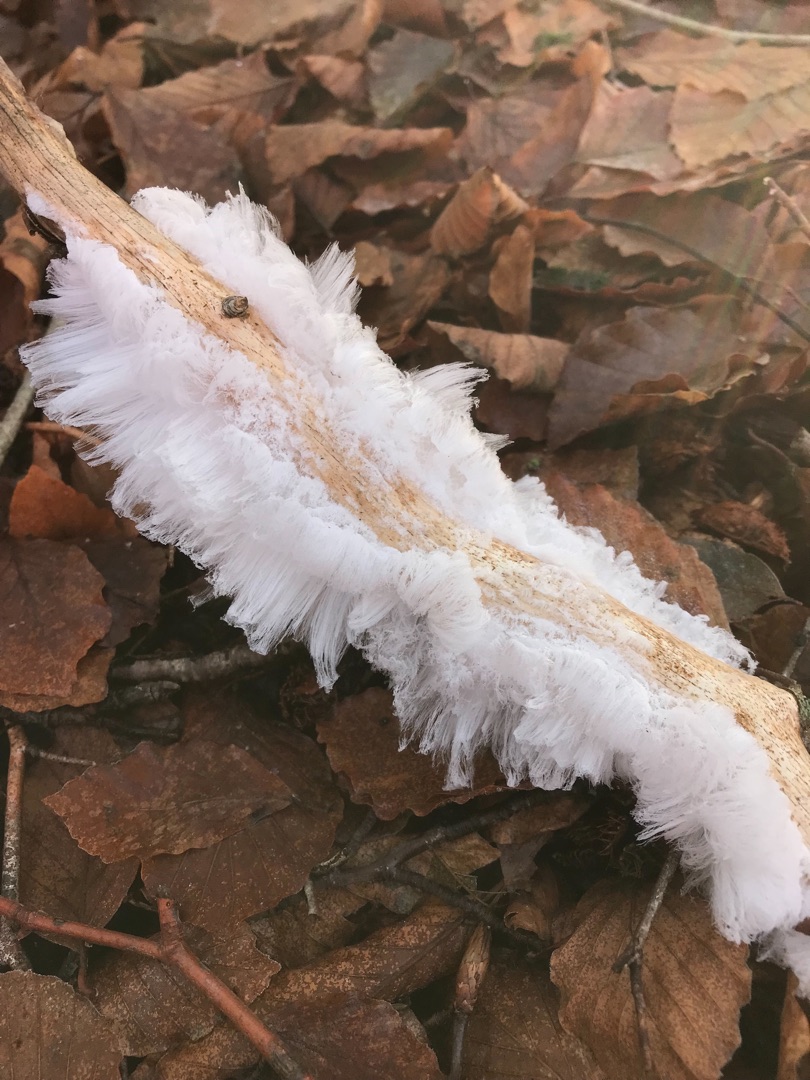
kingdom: Fungi
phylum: Basidiomycota
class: Tremellomycetes
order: Tremellales
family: Exidiaceae
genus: Exidiopsis
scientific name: Exidiopsis effusa
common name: Smuk bævrehinde
